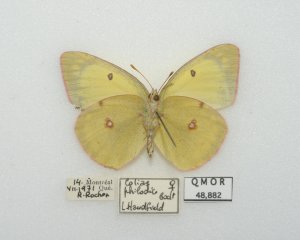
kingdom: Animalia
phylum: Arthropoda
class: Insecta
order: Lepidoptera
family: Pieridae
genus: Colias
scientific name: Colias philodice
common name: Clouded Sulphur
